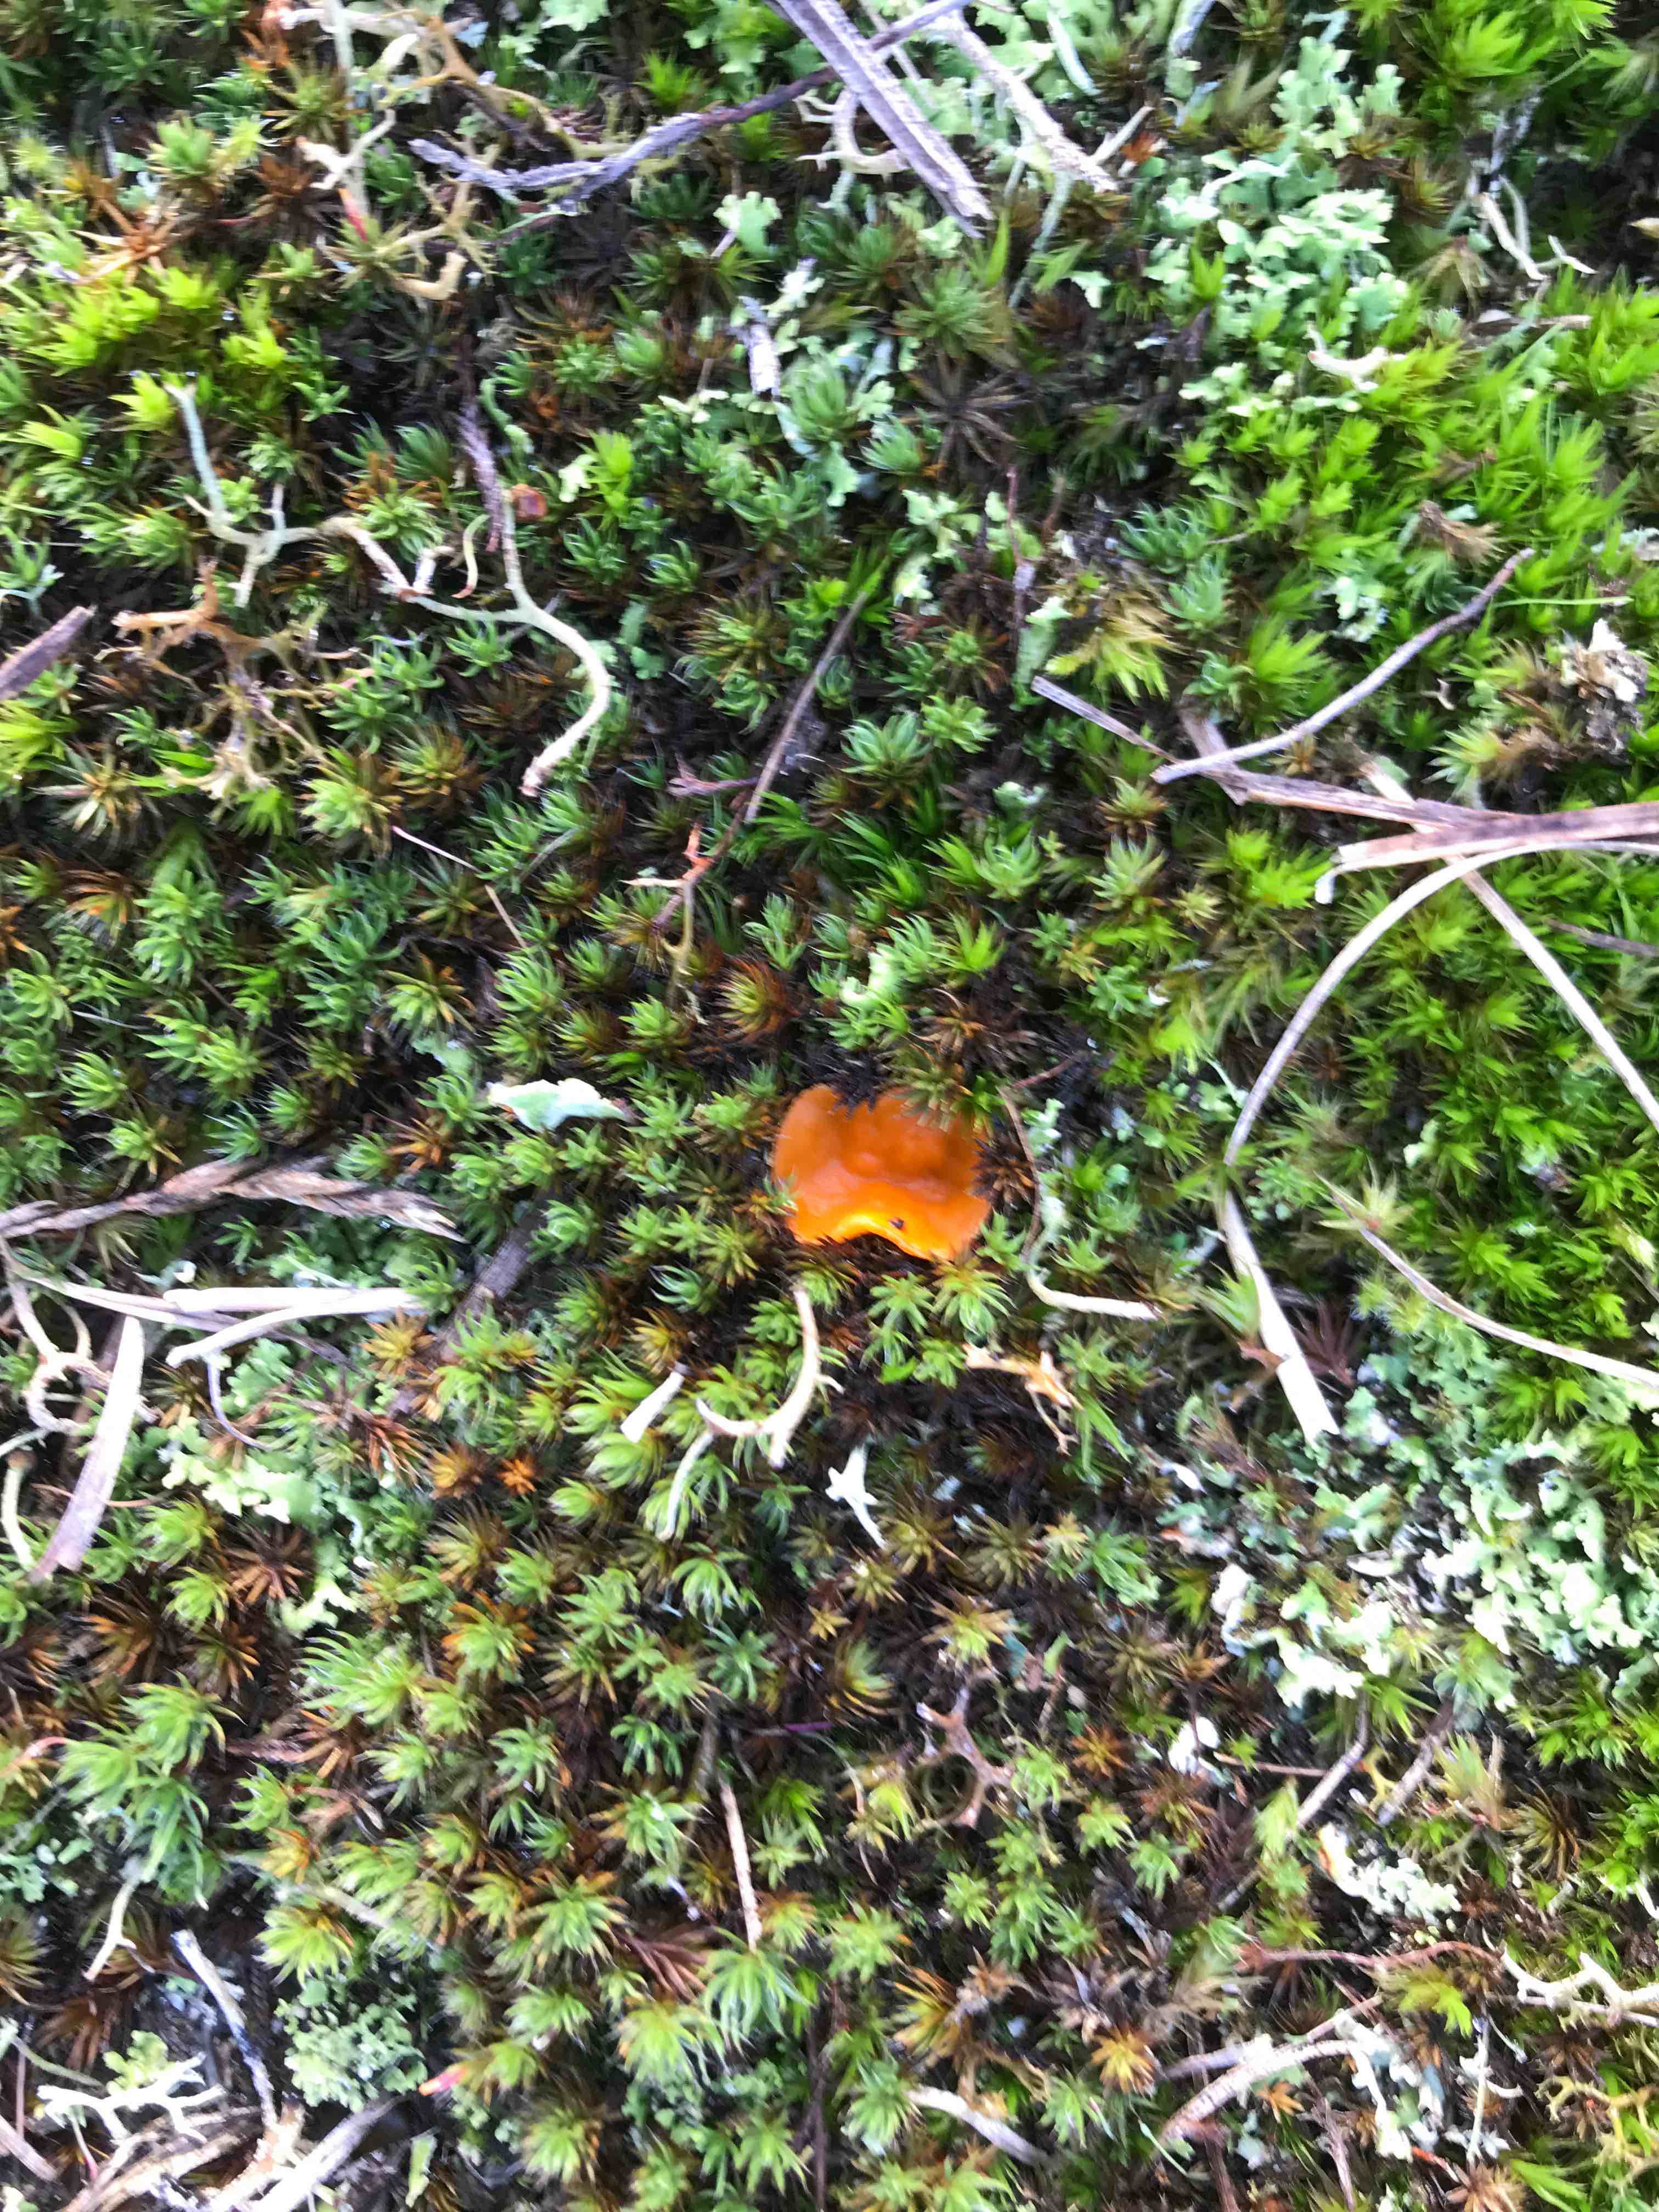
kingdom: Fungi
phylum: Ascomycota
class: Pezizomycetes
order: Pezizales
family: Pyronemataceae
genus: Neottiella
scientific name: Neottiella
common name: mosbæger
